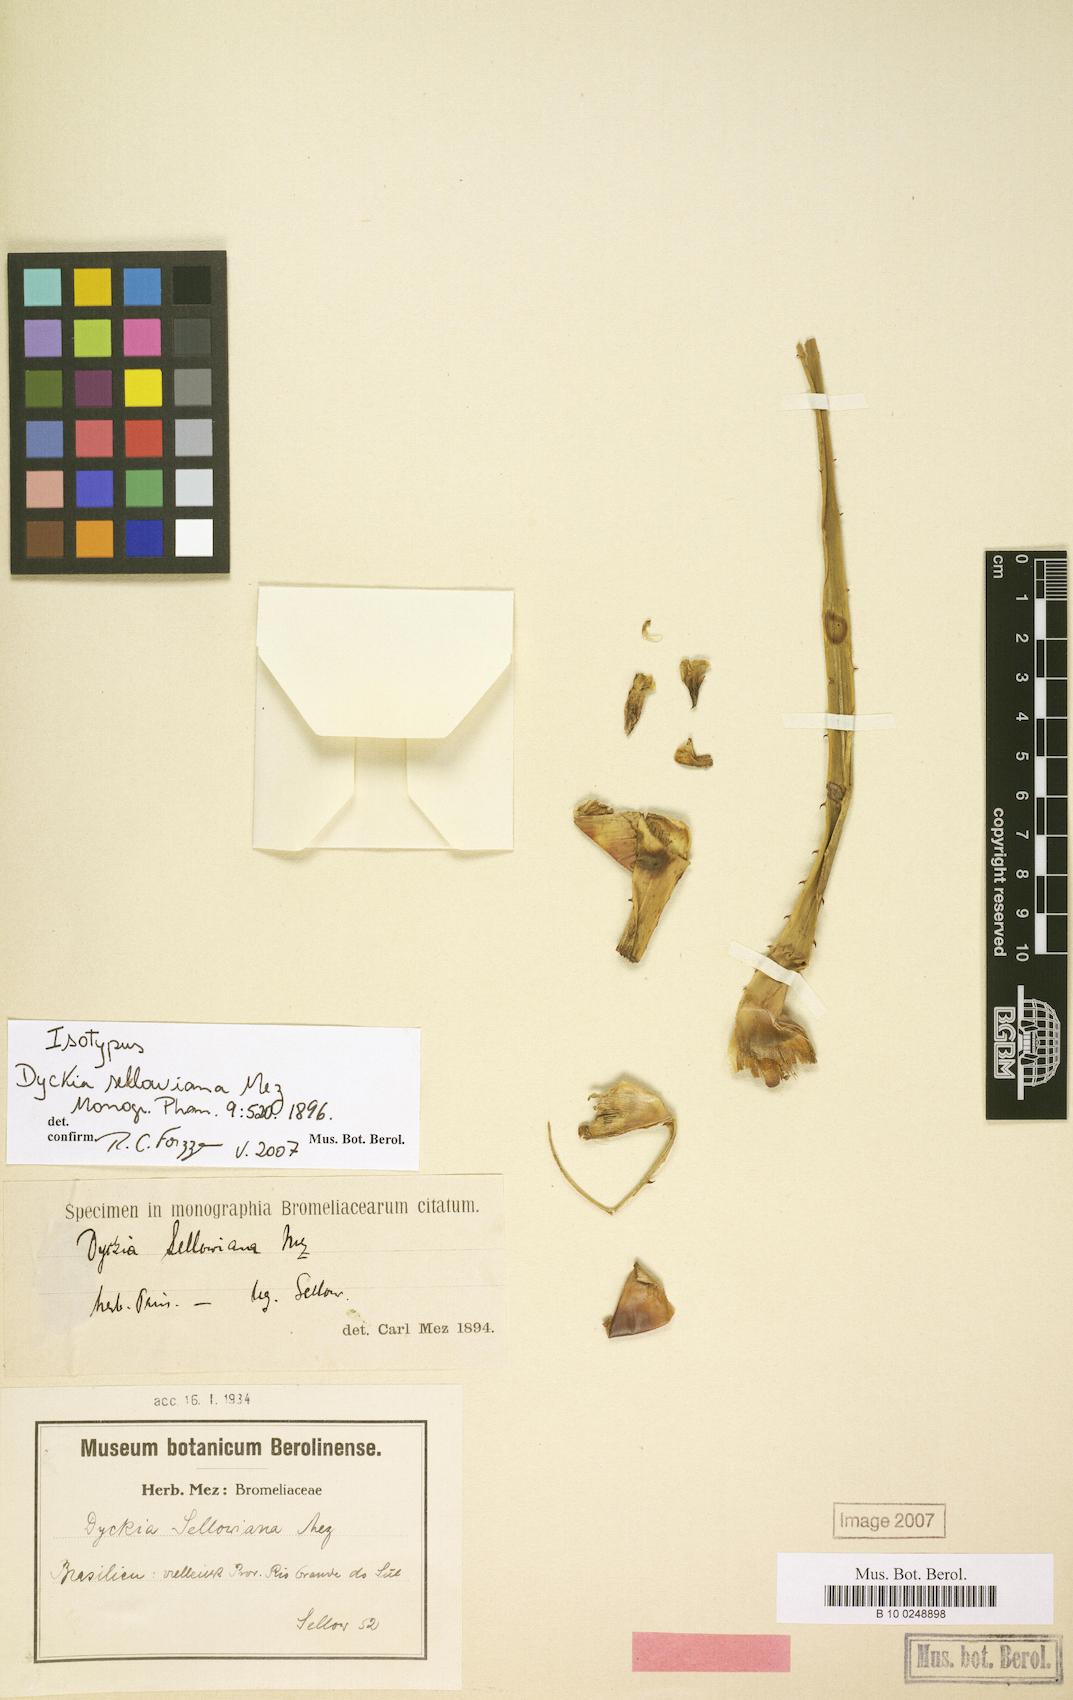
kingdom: Plantae
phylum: Tracheophyta
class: Liliopsida
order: Poales
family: Bromeliaceae
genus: Dyckia
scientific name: Dyckia sellowiana
